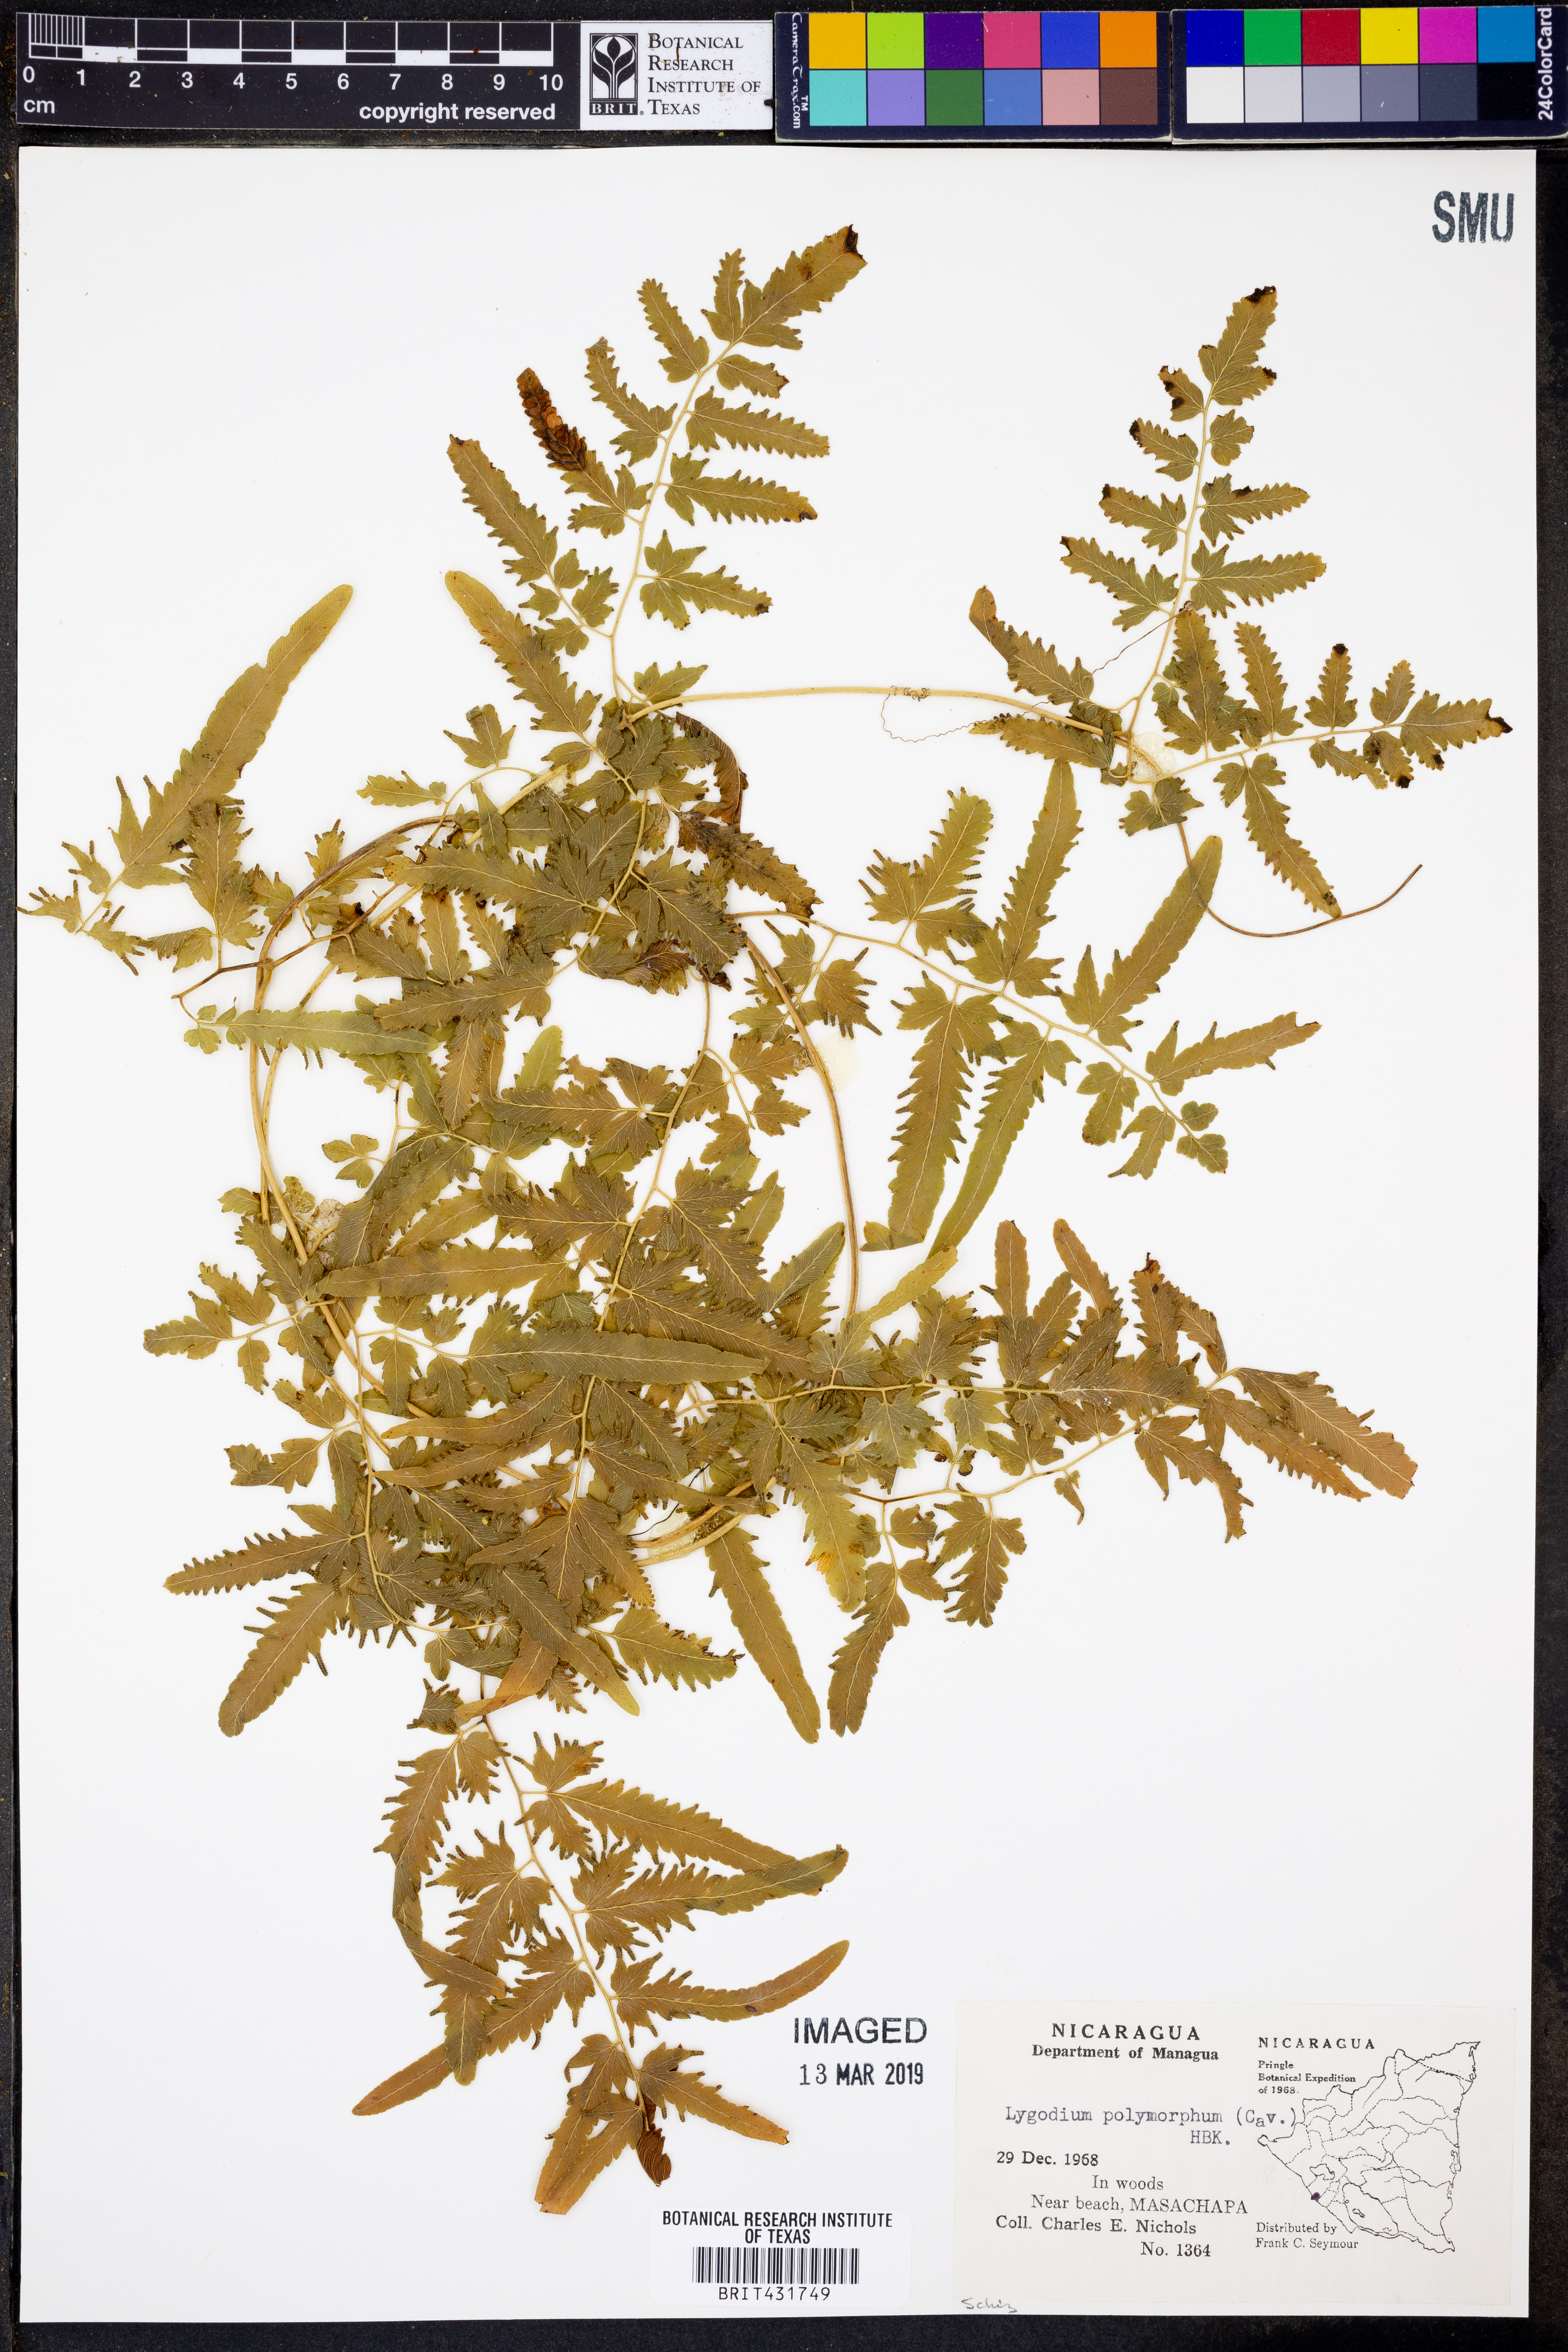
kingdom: Plantae
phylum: Tracheophyta
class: Polypodiopsida
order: Schizaeales
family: Lygodiaceae
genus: Lygodium
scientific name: Lygodium flexuosum
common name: Maidenhair creeper
